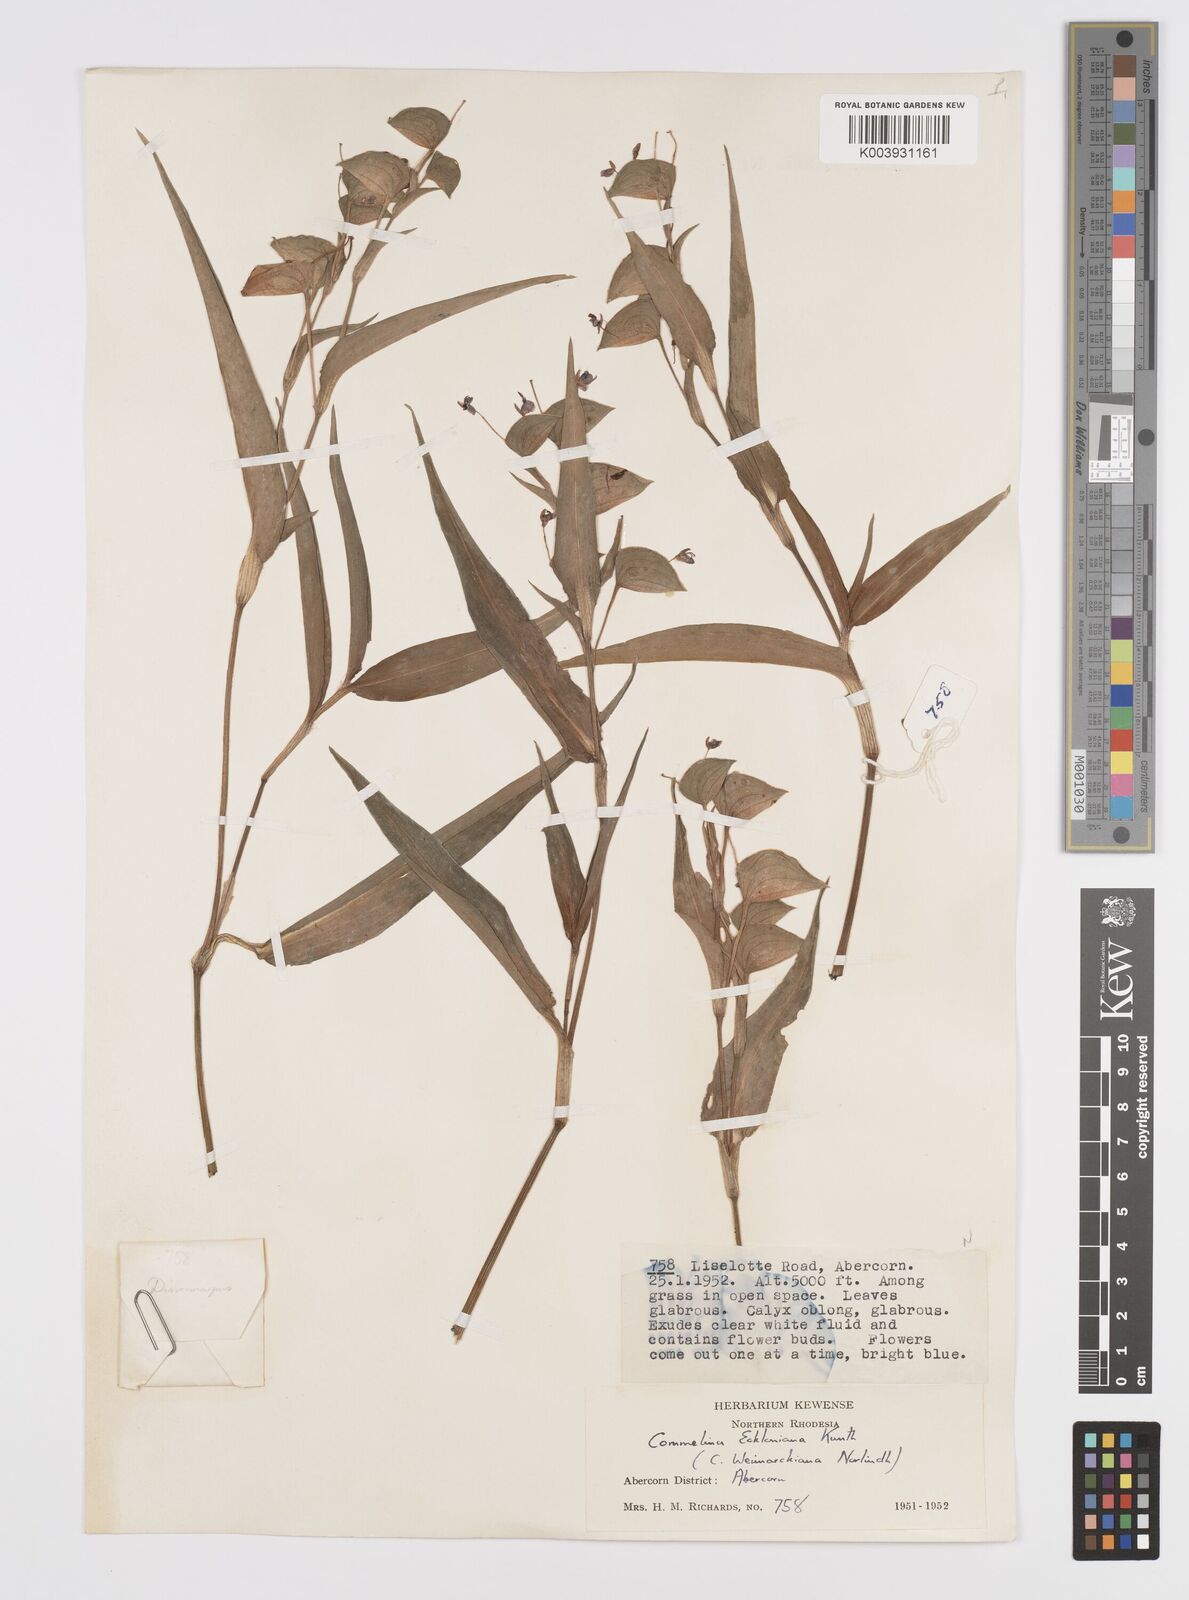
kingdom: Plantae
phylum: Tracheophyta
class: Liliopsida
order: Commelinales
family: Commelinaceae
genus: Commelina
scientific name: Commelina eckloniana
